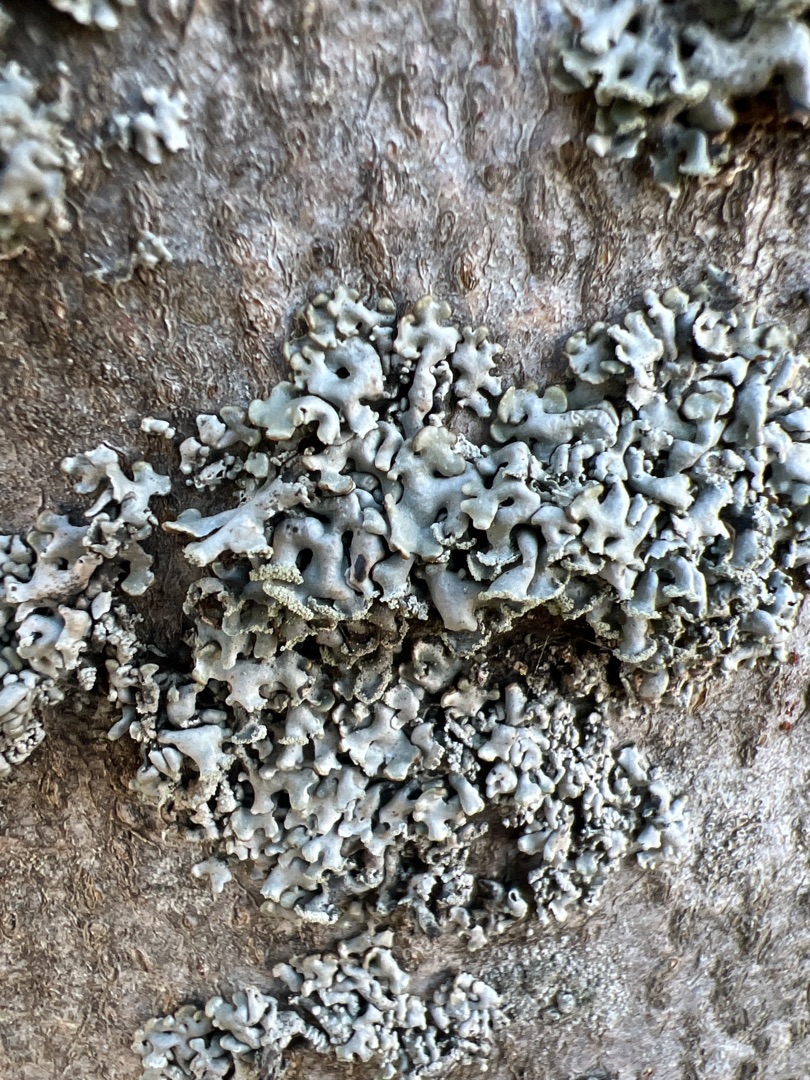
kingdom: Fungi
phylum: Ascomycota
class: Lecanoromycetes
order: Lecanorales
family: Parmeliaceae
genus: Hypogymnia
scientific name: Hypogymnia physodes
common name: Almindelig kvistlav
